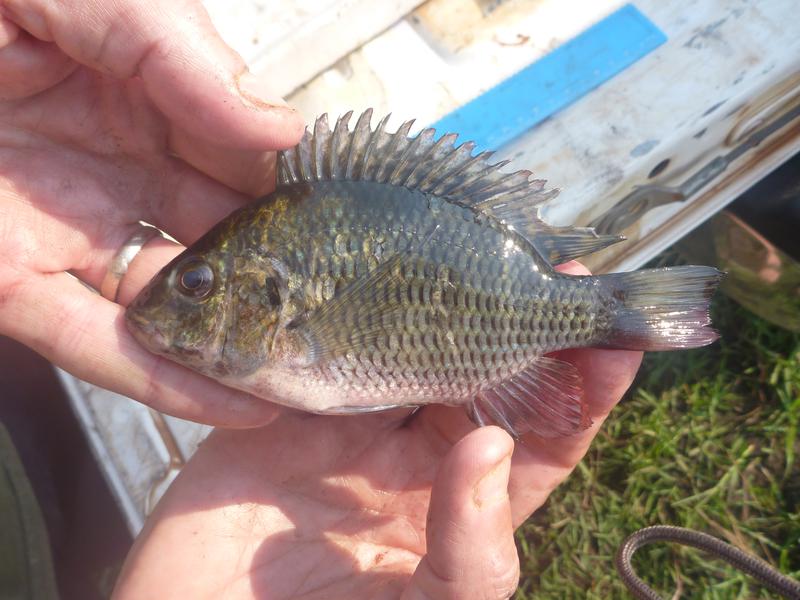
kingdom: Animalia
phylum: Chordata
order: Perciformes
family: Cichlidae
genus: Coptodon
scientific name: Coptodon rendalli
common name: Redbreast tilapia
